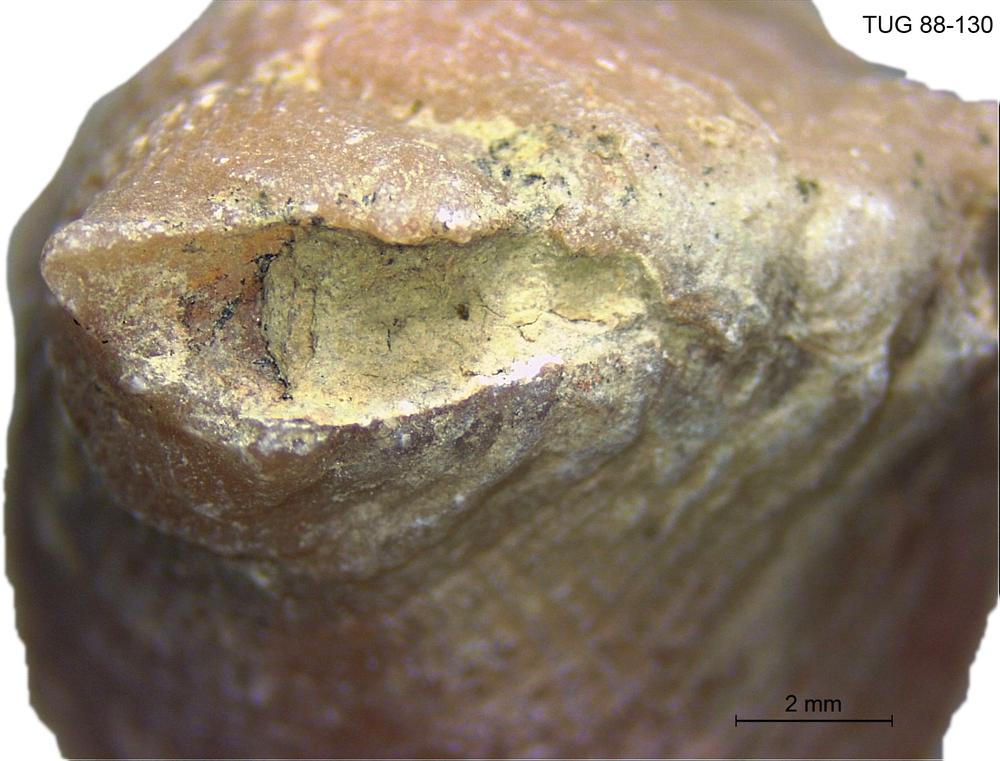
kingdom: Animalia
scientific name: Animalia
